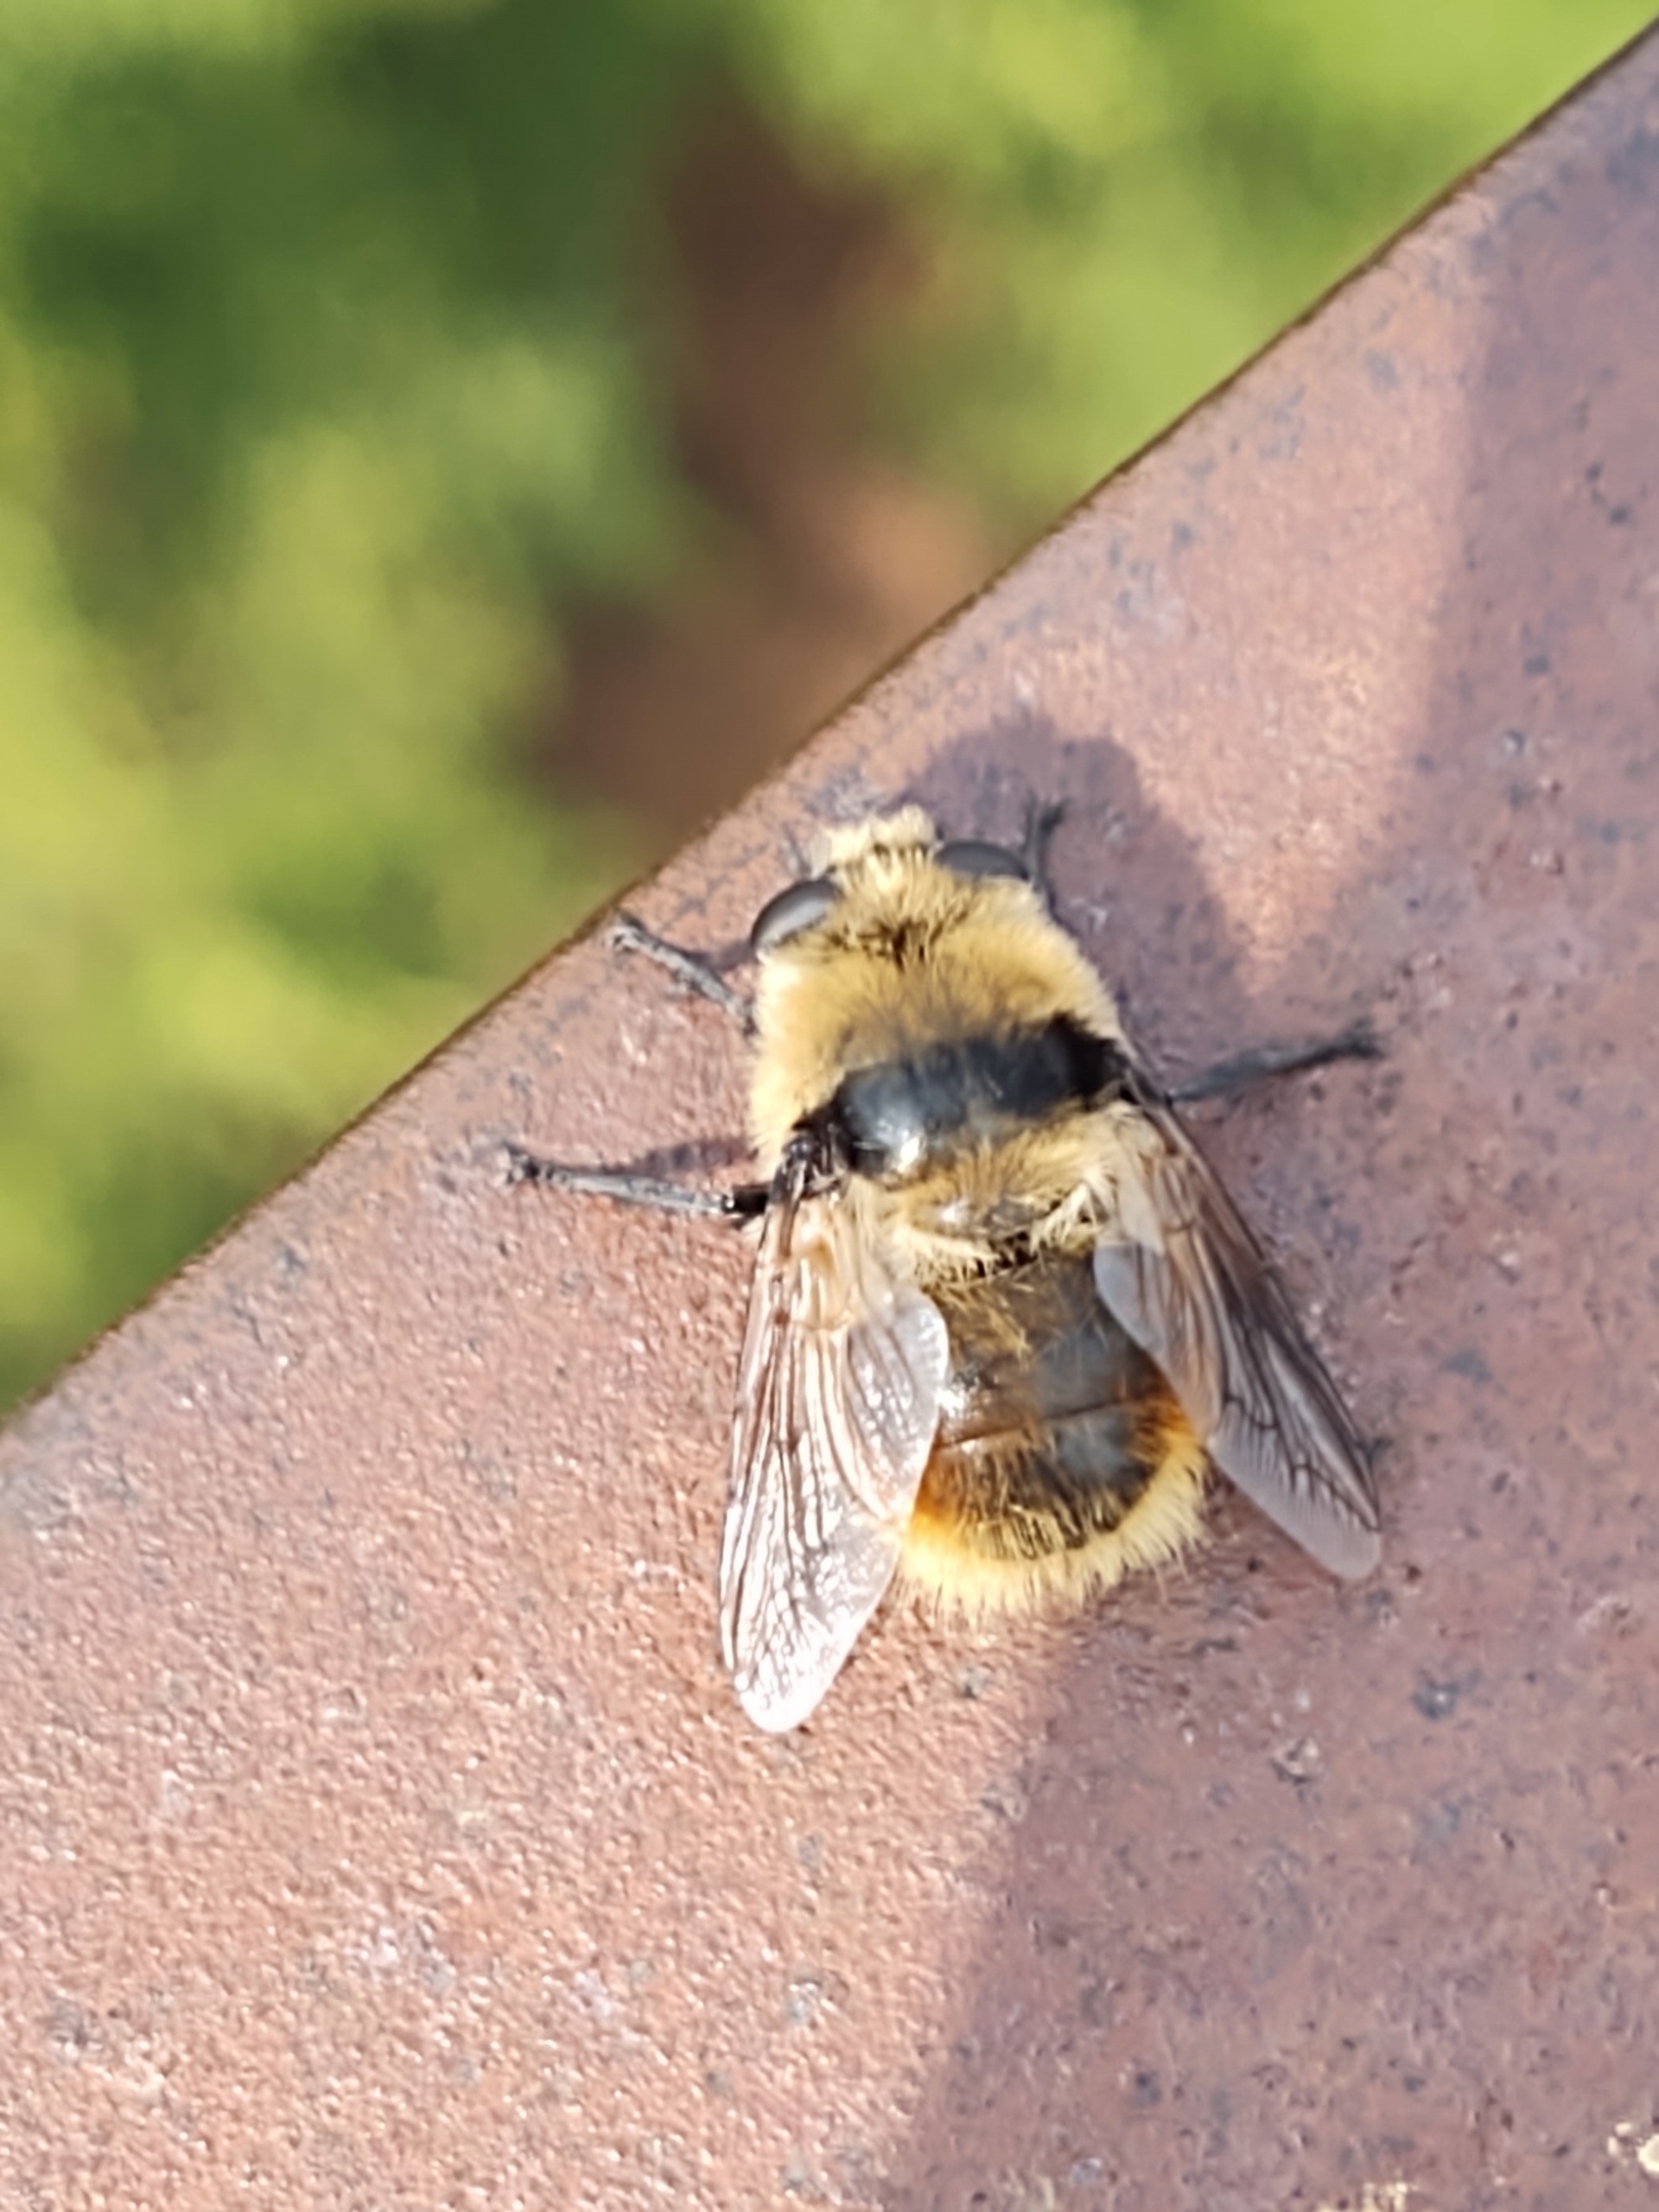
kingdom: Animalia
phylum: Arthropoda
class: Insecta
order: Diptera
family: Oestridae
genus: Cephenemyia
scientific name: Cephenemyia stimulator
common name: Rådyrets svælgbremse
